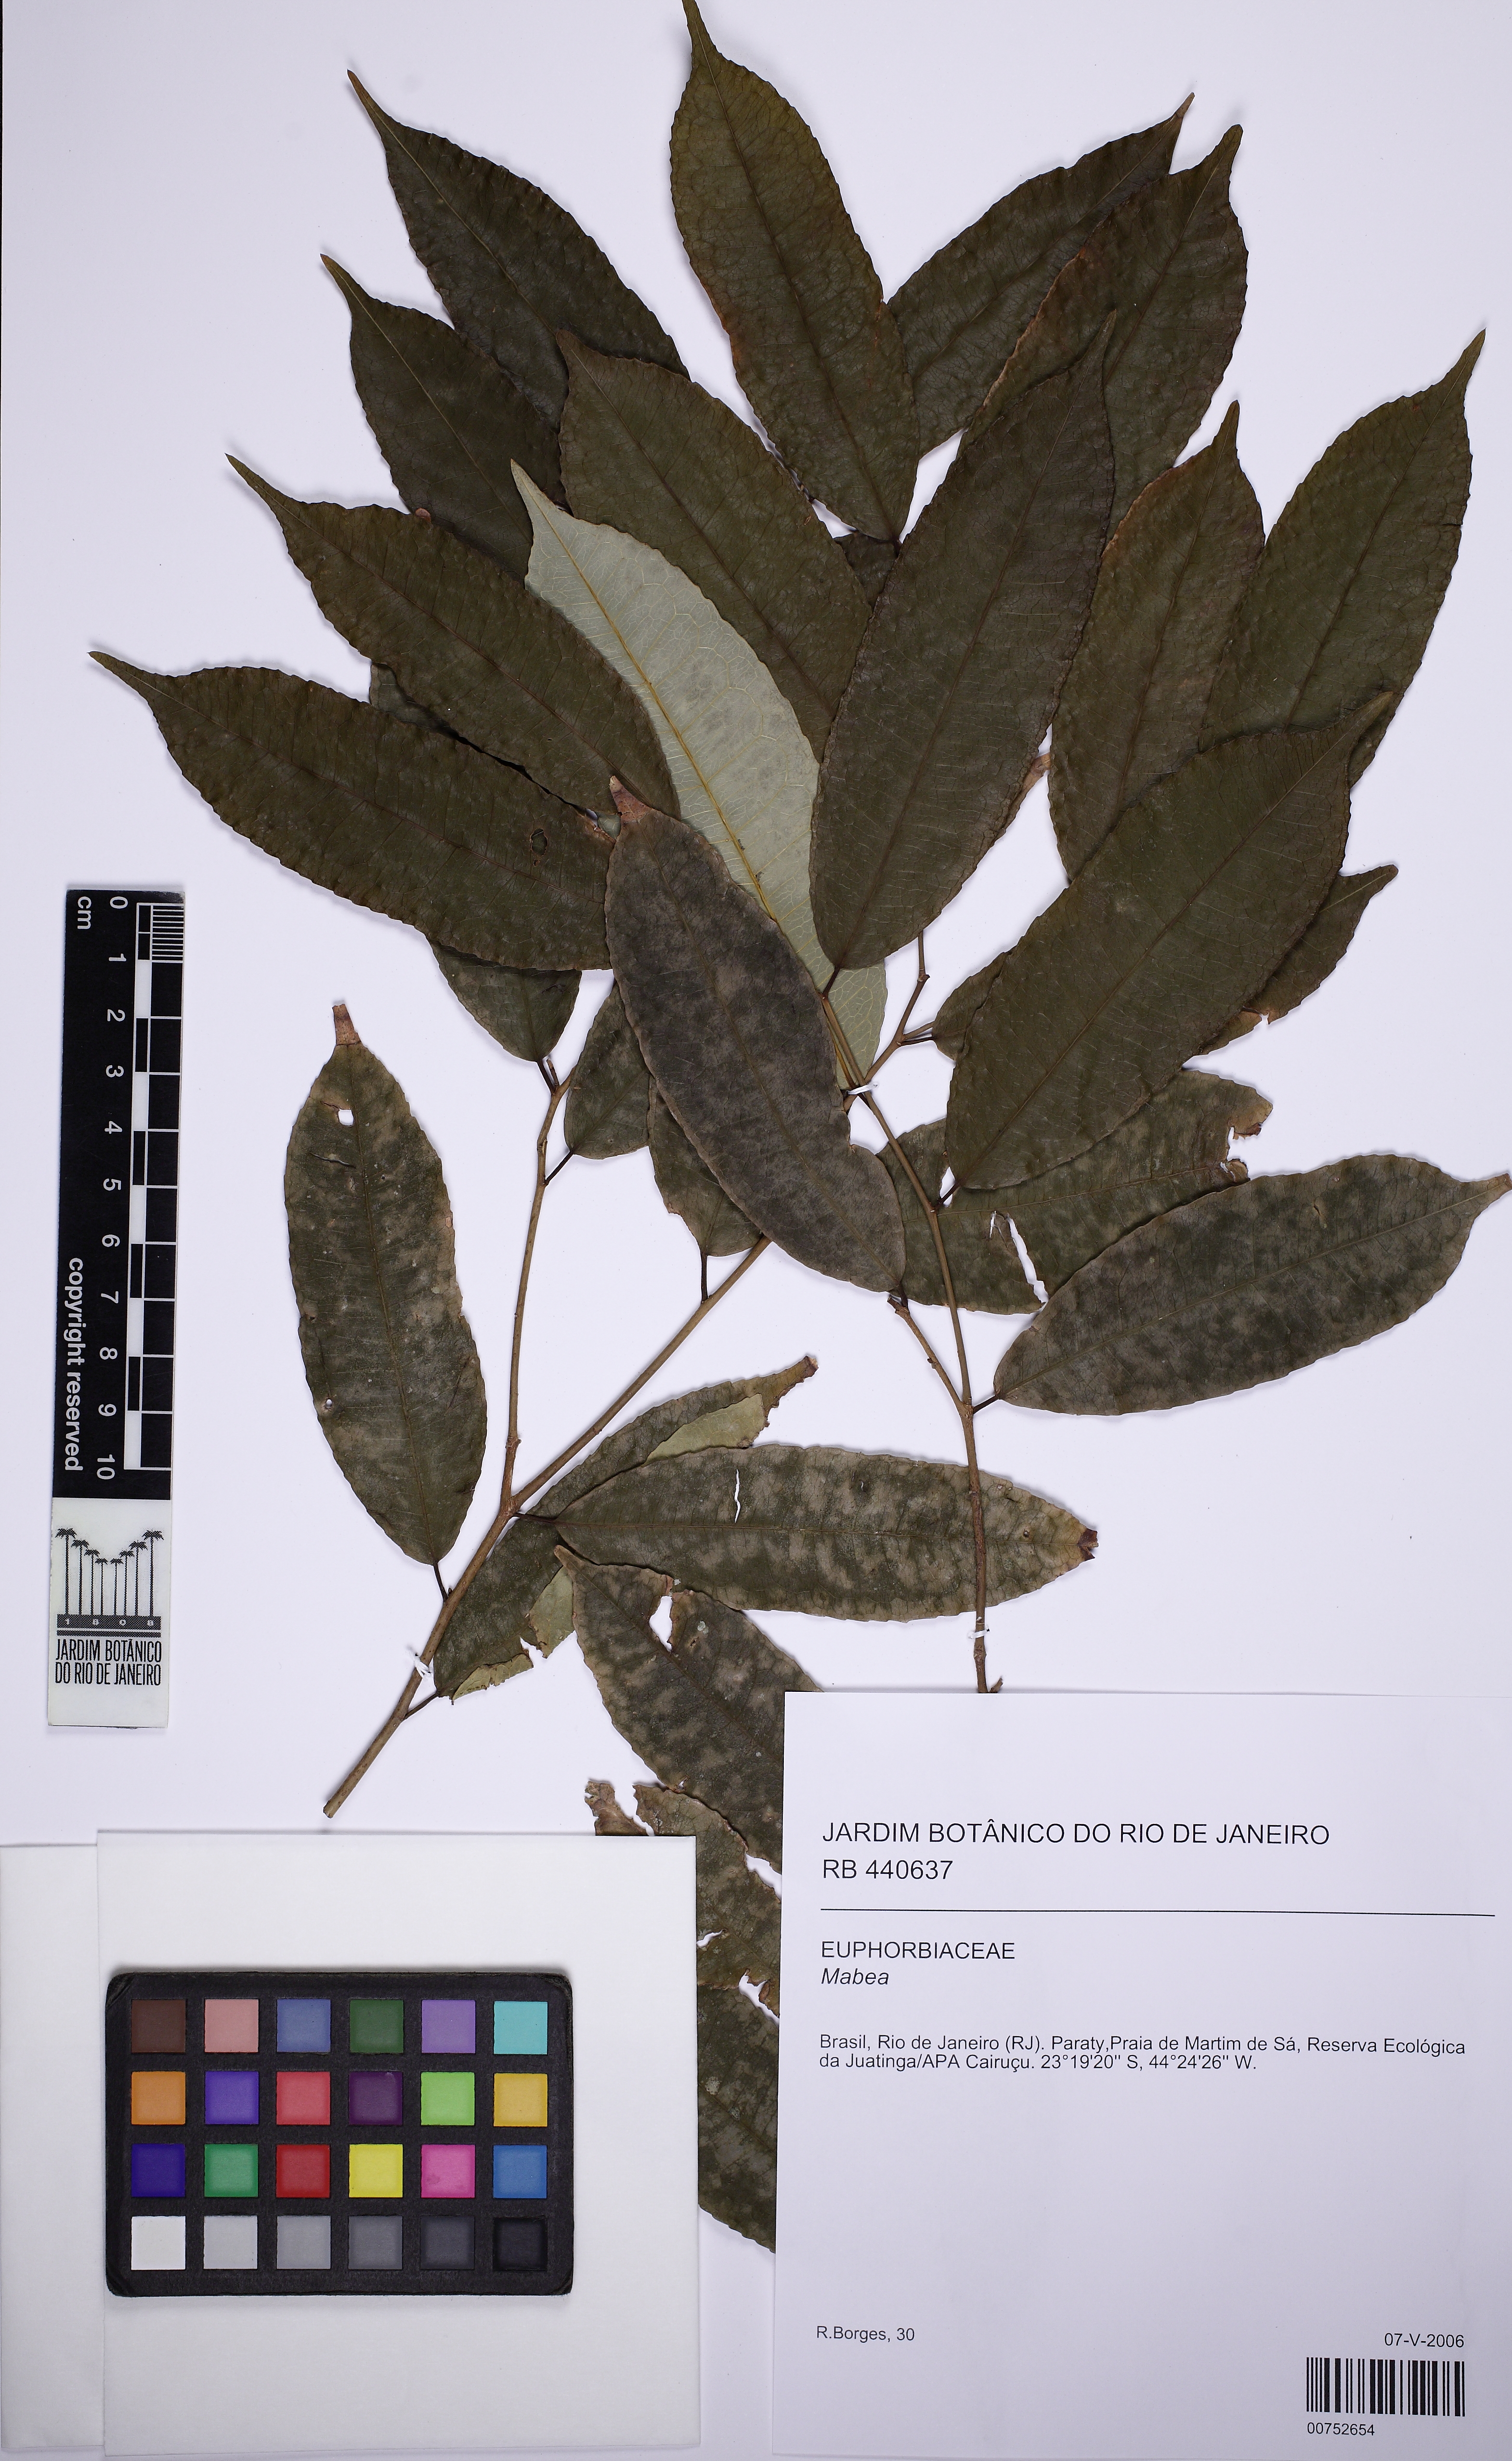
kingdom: Plantae
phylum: Tracheophyta
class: Magnoliopsida
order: Malpighiales
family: Euphorbiaceae
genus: Mabea
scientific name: Mabea piriri
